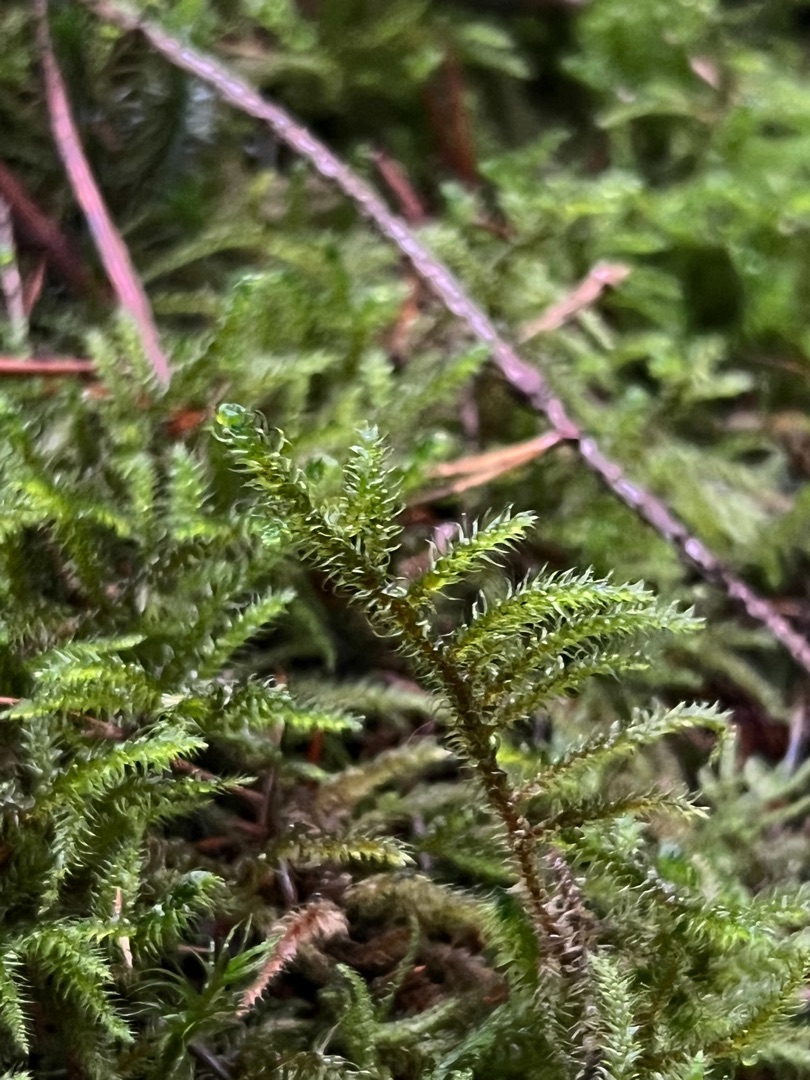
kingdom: Plantae
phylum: Bryophyta
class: Bryopsida
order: Hypnales
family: Hylocomiaceae
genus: Rhytidiadelphus
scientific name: Rhytidiadelphus loreus
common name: Ulvefod-kransemos
